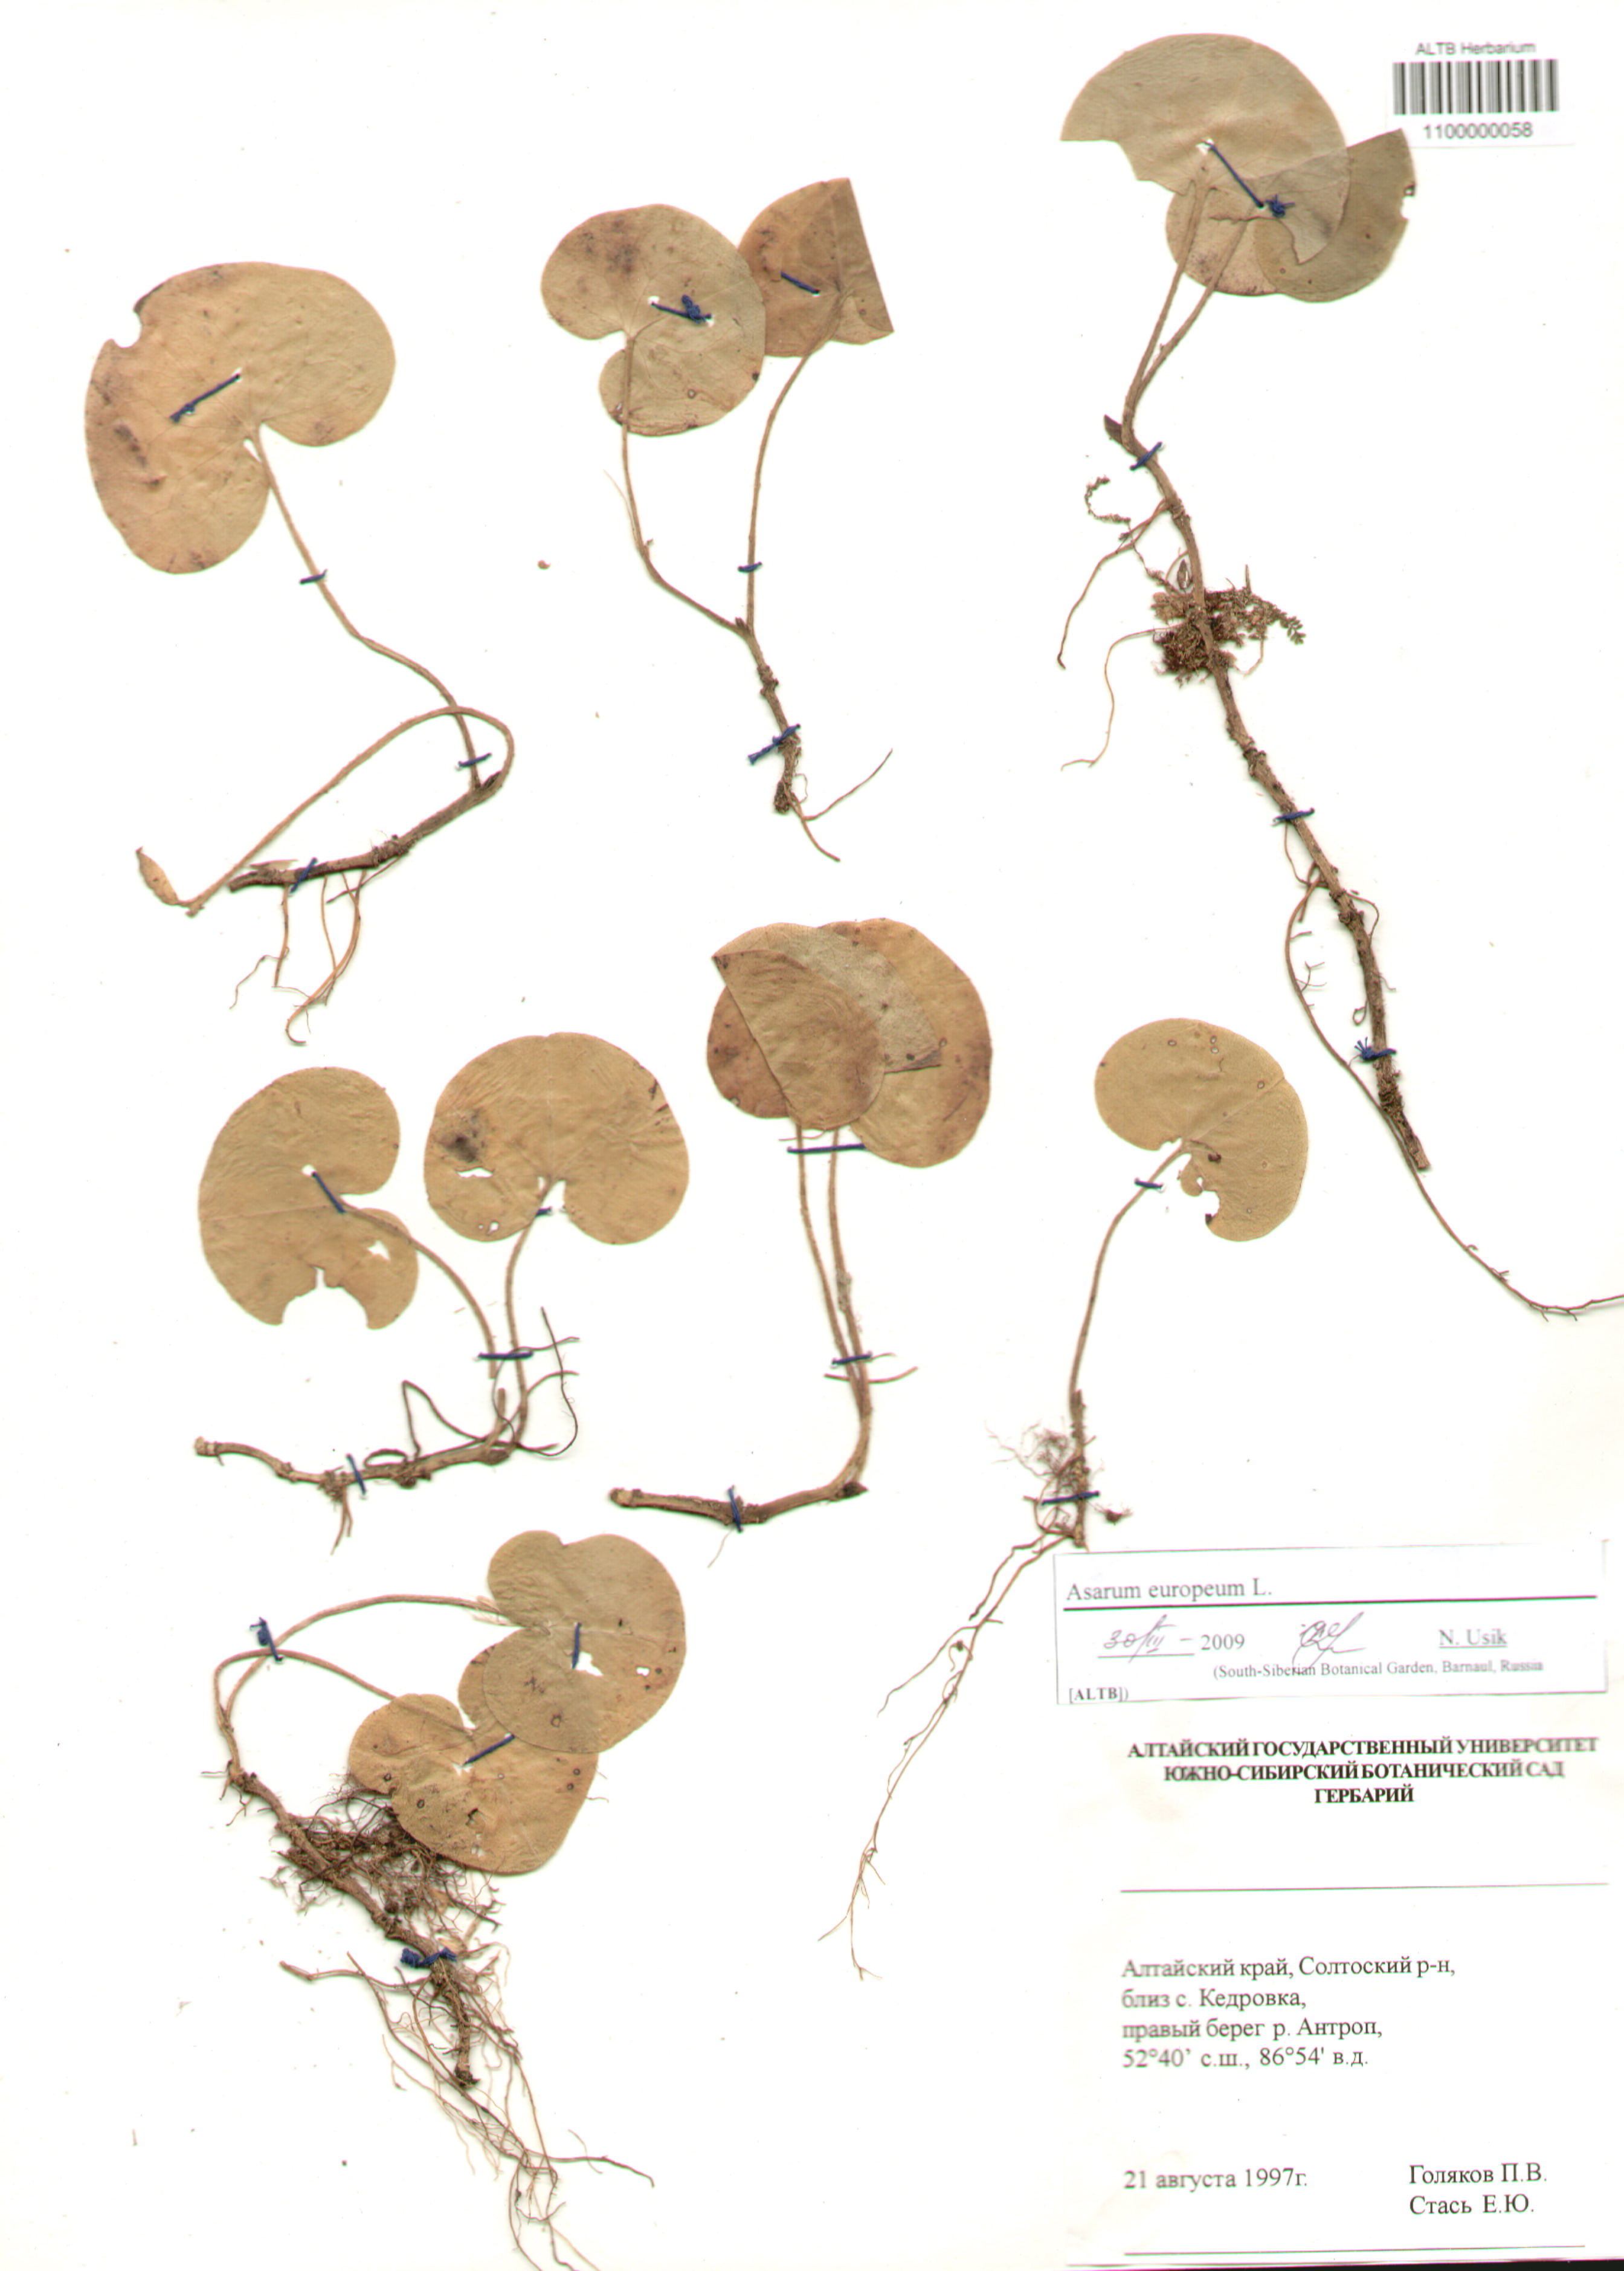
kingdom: Plantae
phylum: Tracheophyta
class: Magnoliopsida
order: Piperales
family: Aristolochiaceae
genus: Asarum
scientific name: Asarum europaeum
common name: Asarabacca
